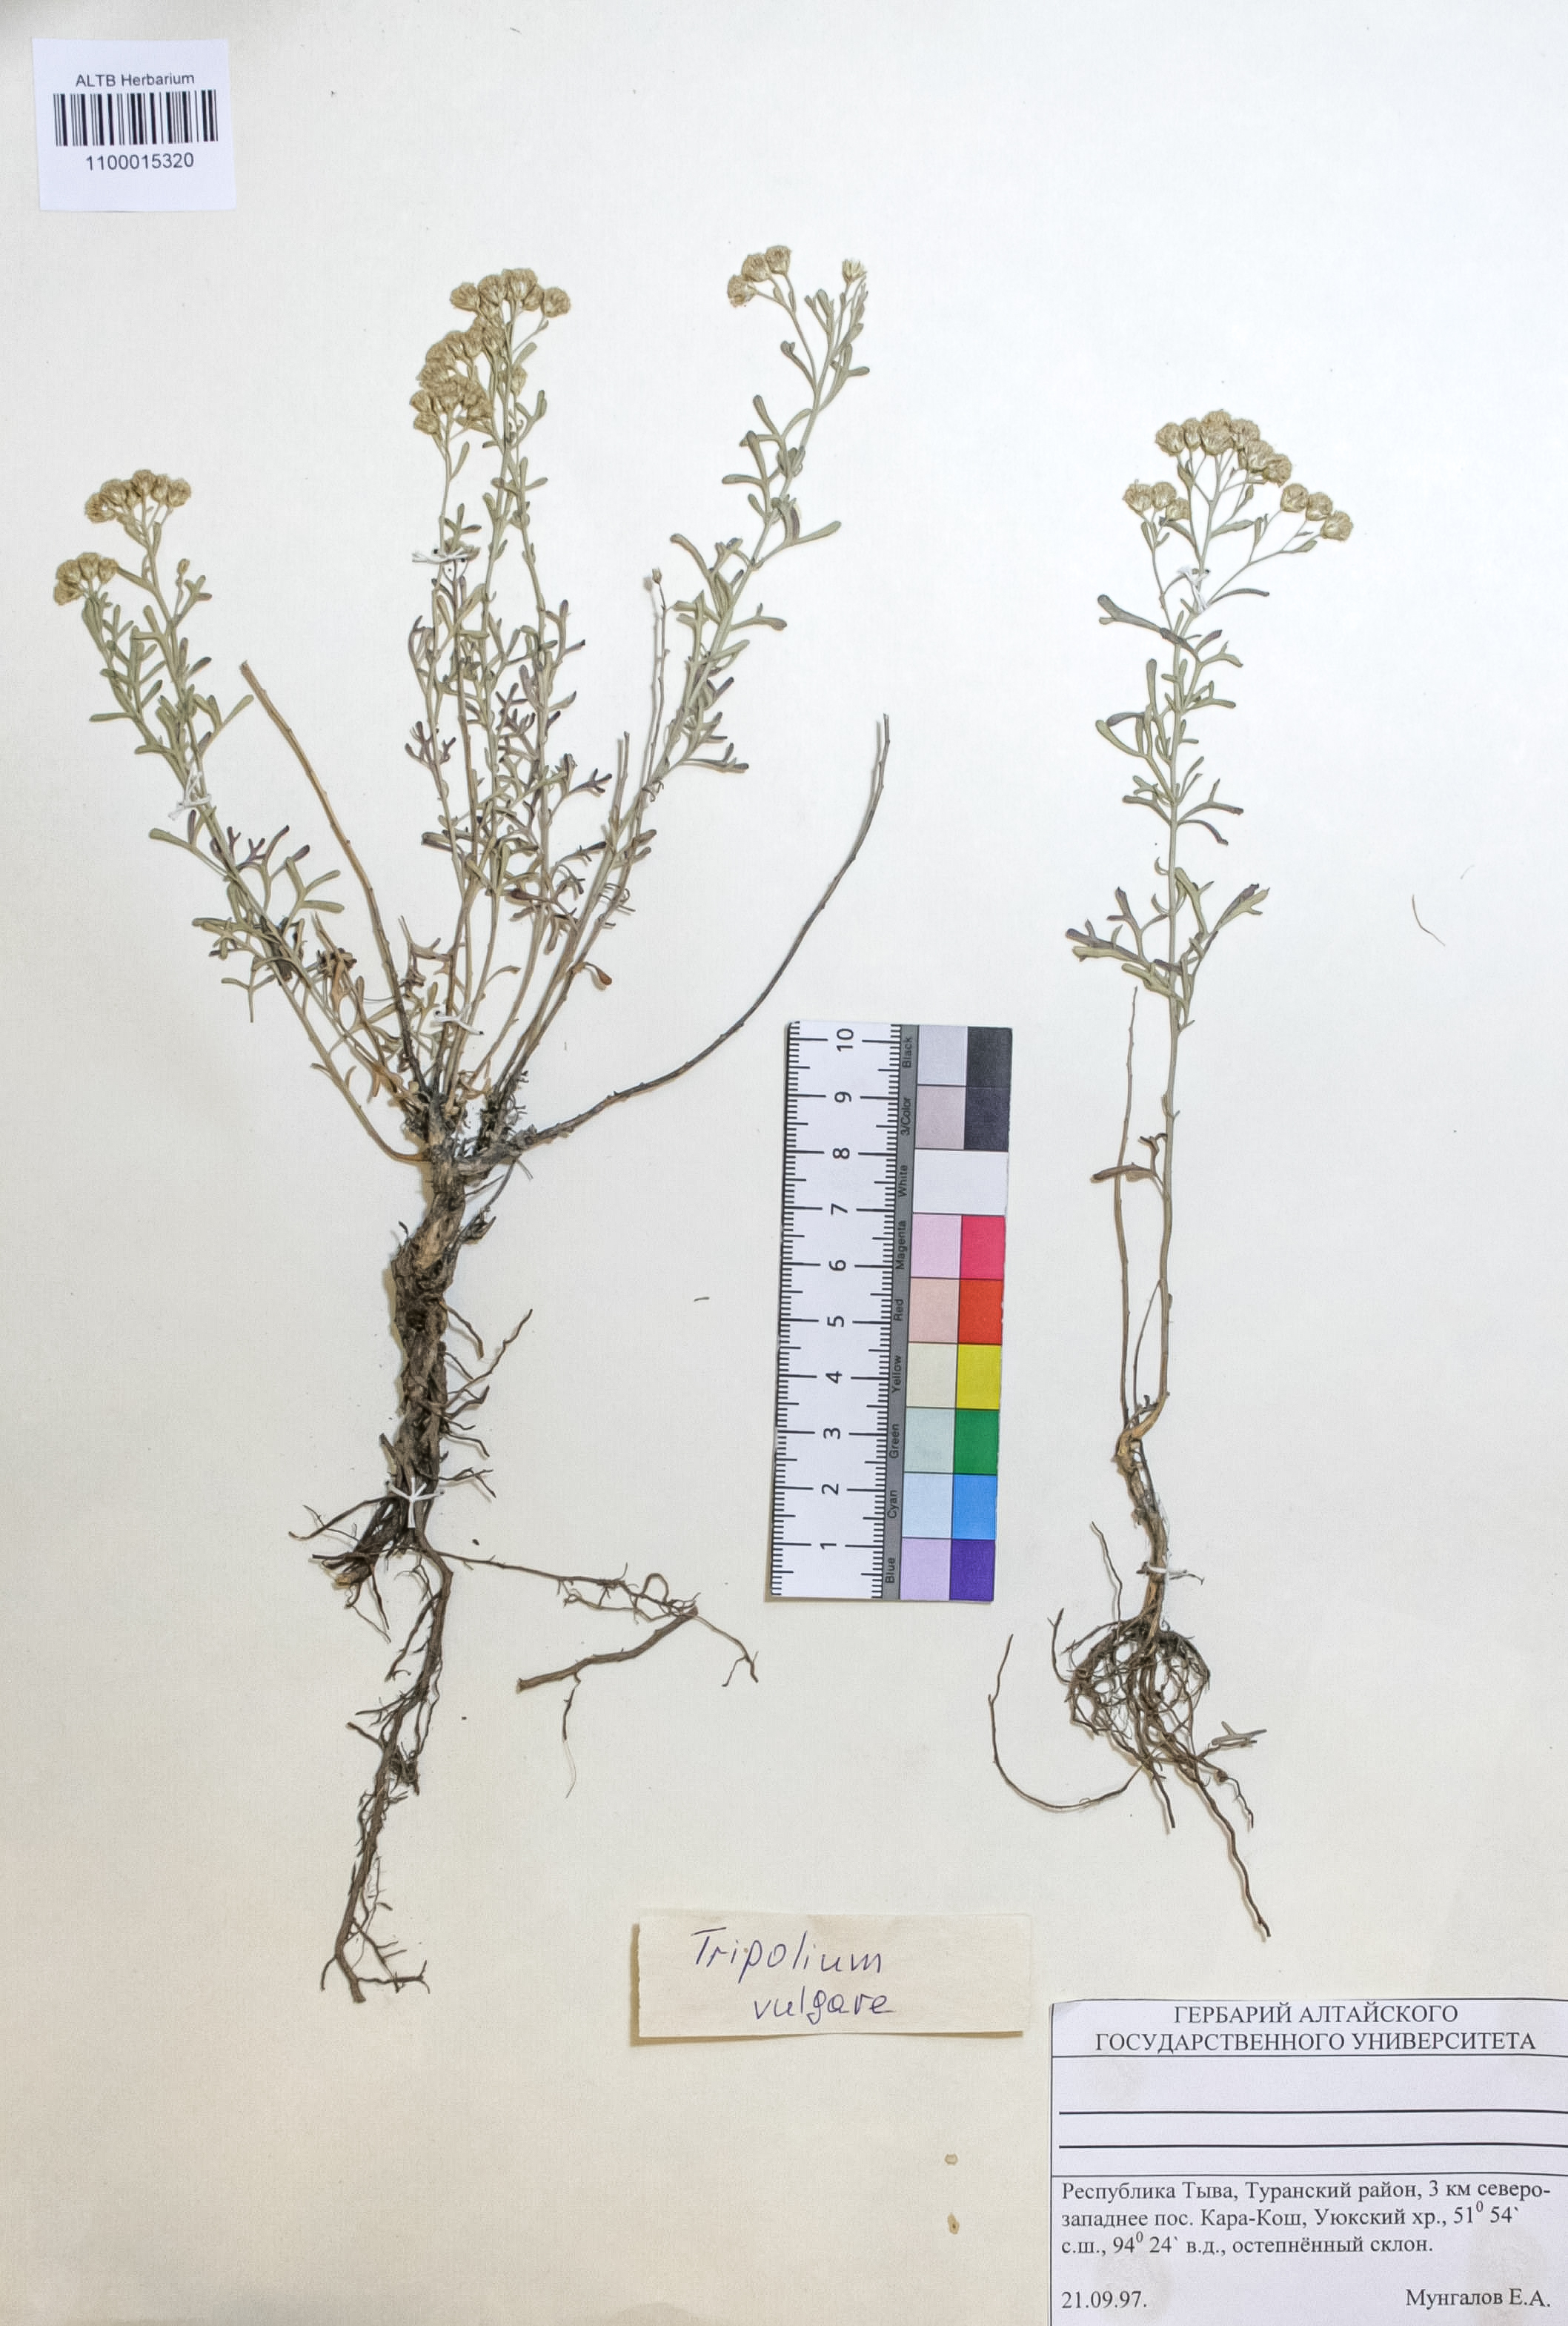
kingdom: Plantae
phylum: Tracheophyta
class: Magnoliopsida
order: Asterales
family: Asteraceae
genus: Tripolium
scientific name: Tripolium pannonicum
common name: Sea aster
